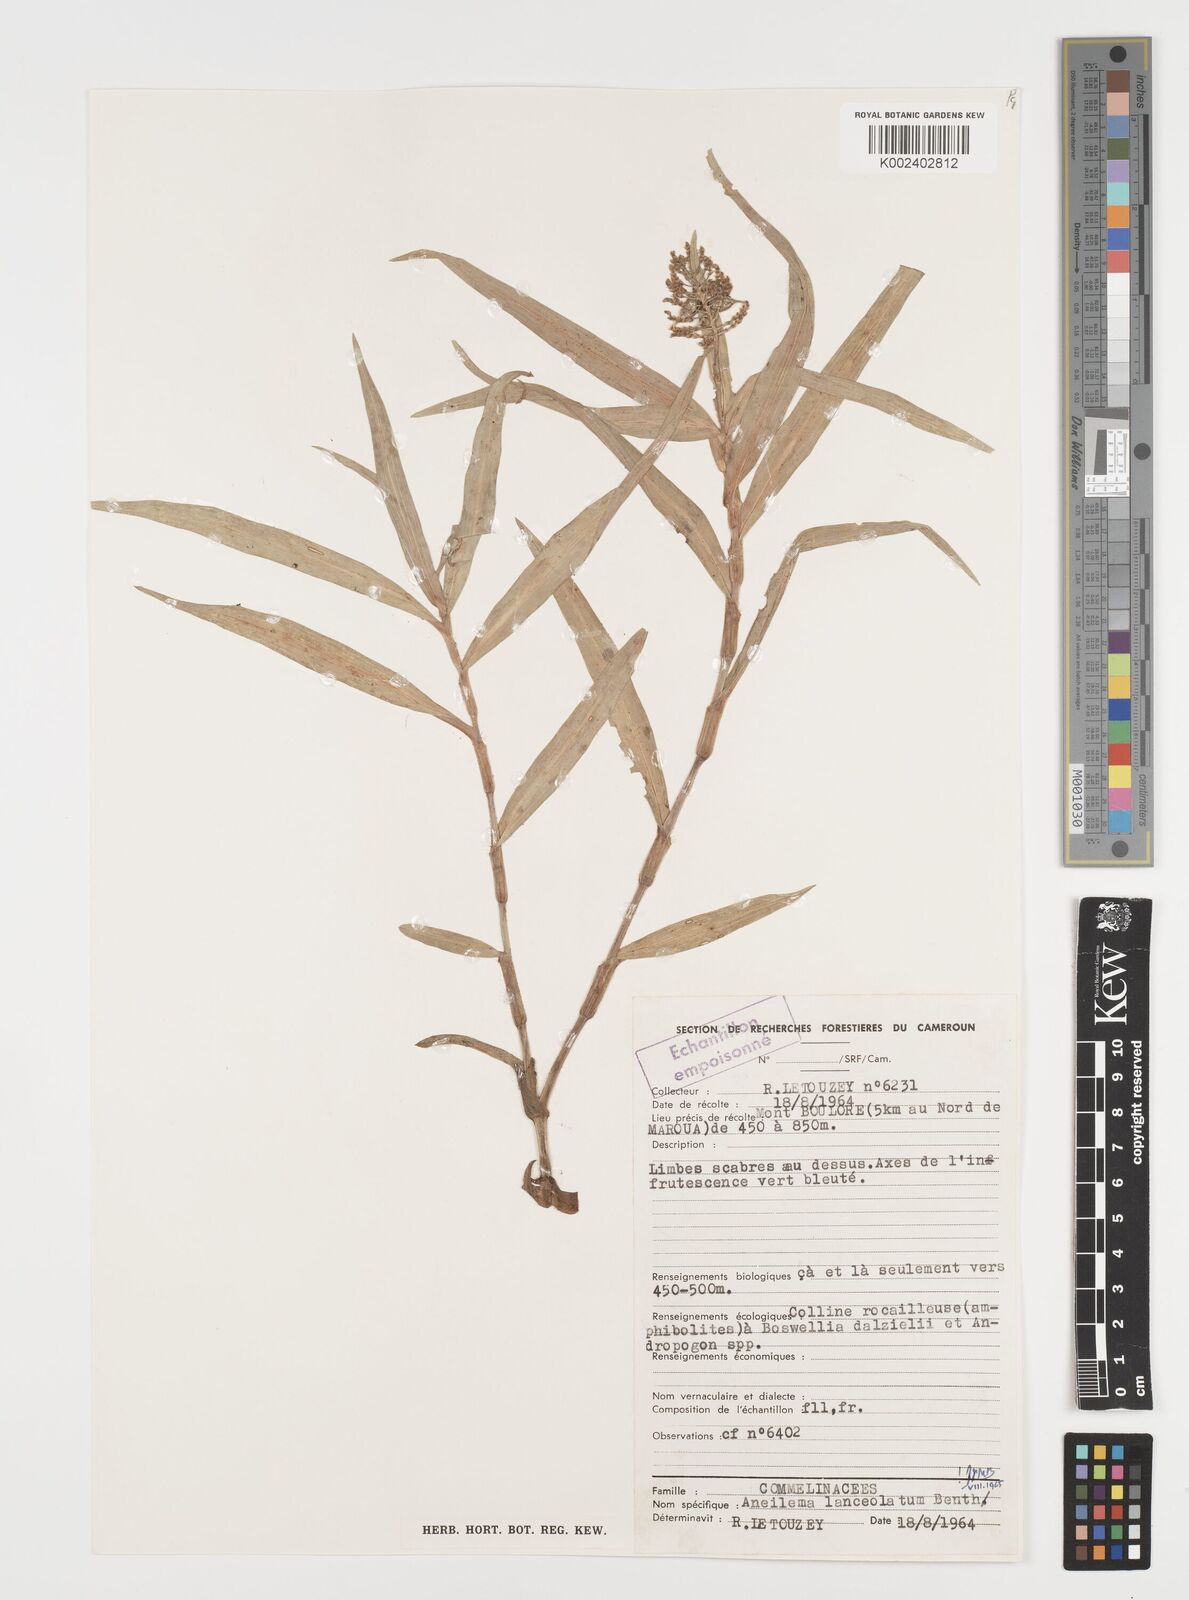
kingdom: Plantae
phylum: Tracheophyta
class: Liliopsida
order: Commelinales
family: Commelinaceae
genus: Aneilema
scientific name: Aneilema lanceolatum
